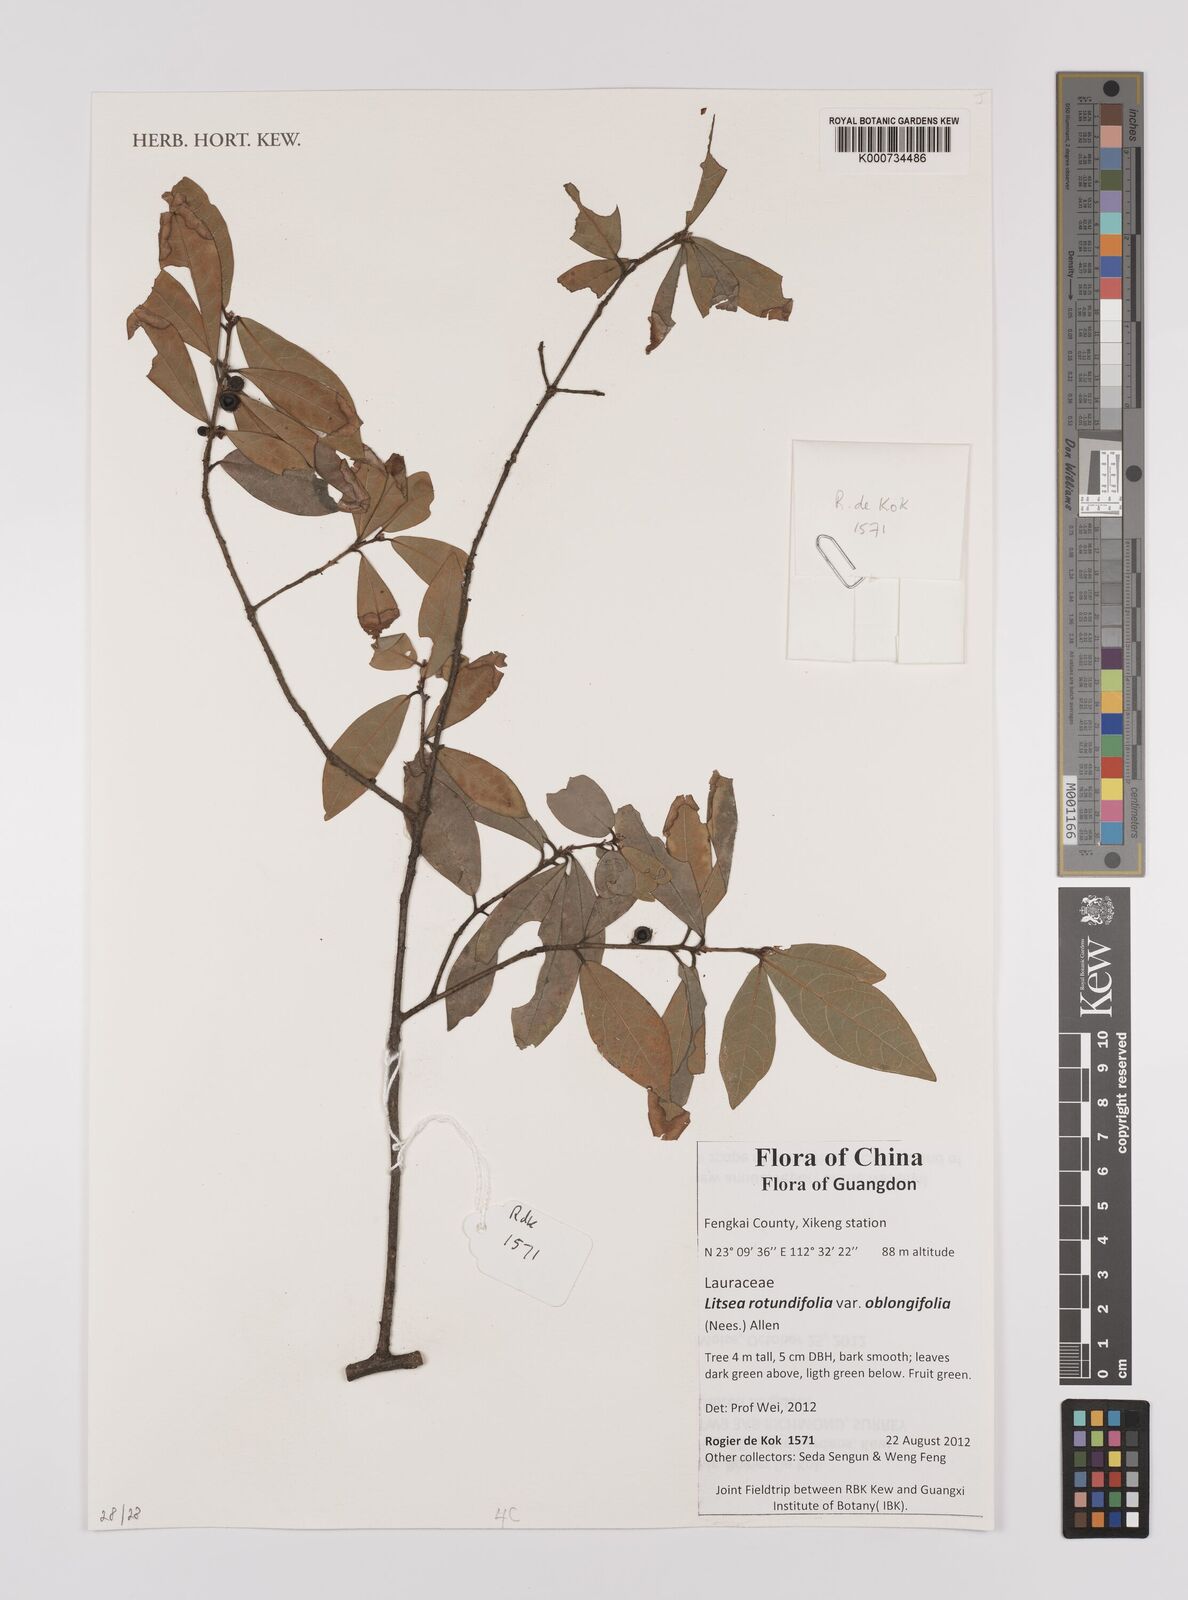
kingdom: Plantae
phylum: Tracheophyta
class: Magnoliopsida
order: Laurales
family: Lauraceae
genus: Litsea
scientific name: Litsea rotundifolia
